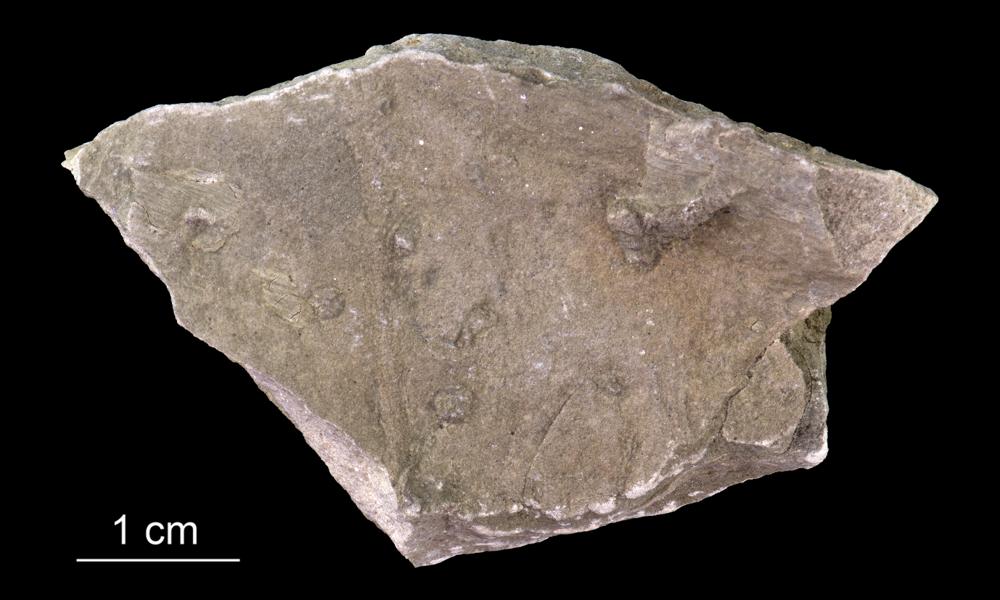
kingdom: Animalia
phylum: Annelida
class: Polychaeta
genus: Volborthella
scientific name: Volborthella tenuis
